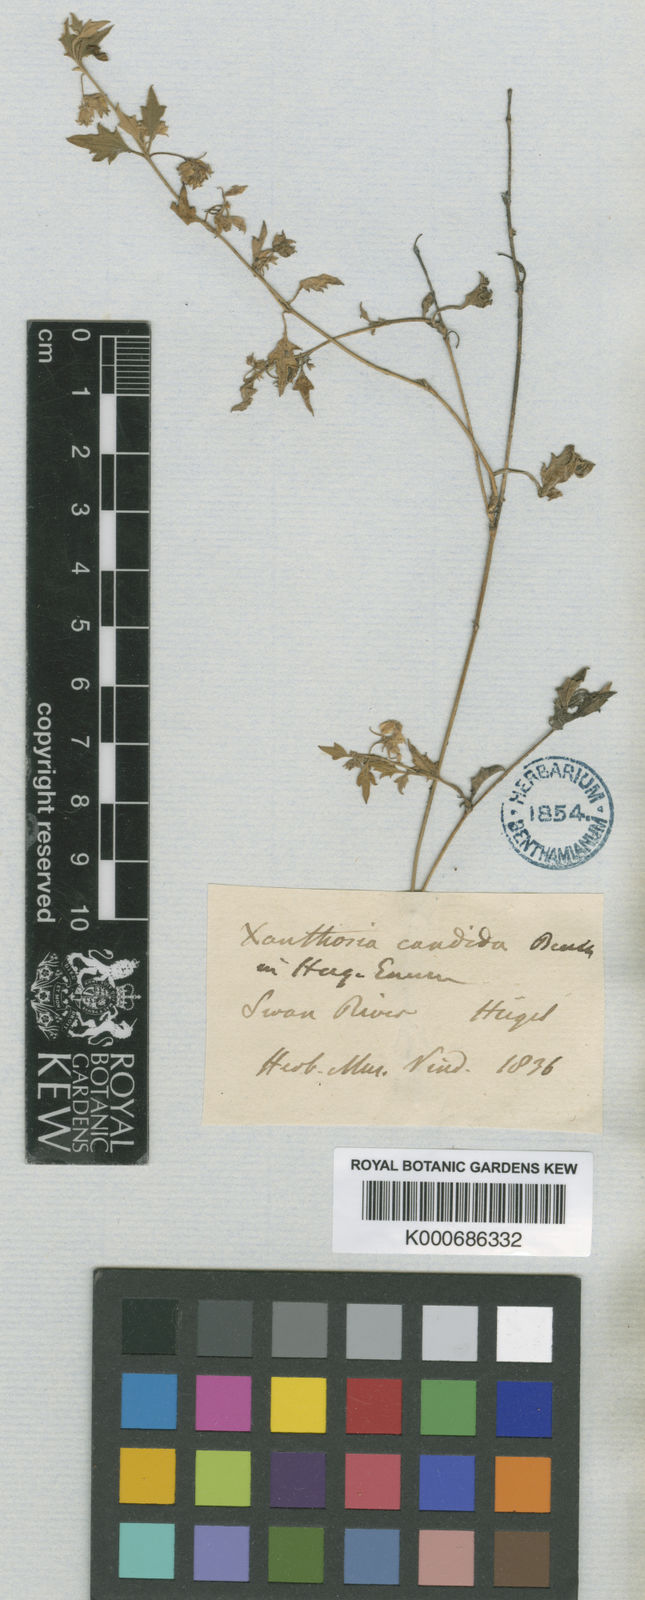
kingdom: Plantae
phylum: Tracheophyta
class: Magnoliopsida
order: Apiales
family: Apiaceae
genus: Xanthosia
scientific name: Xanthosia candida
